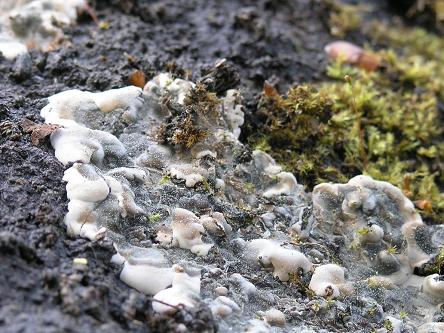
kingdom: Fungi
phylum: Ascomycota
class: Sordariomycetes
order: Xylariales
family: Xylariaceae
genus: Kretzschmaria
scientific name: Kretzschmaria deusta
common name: stor kulsvamp
